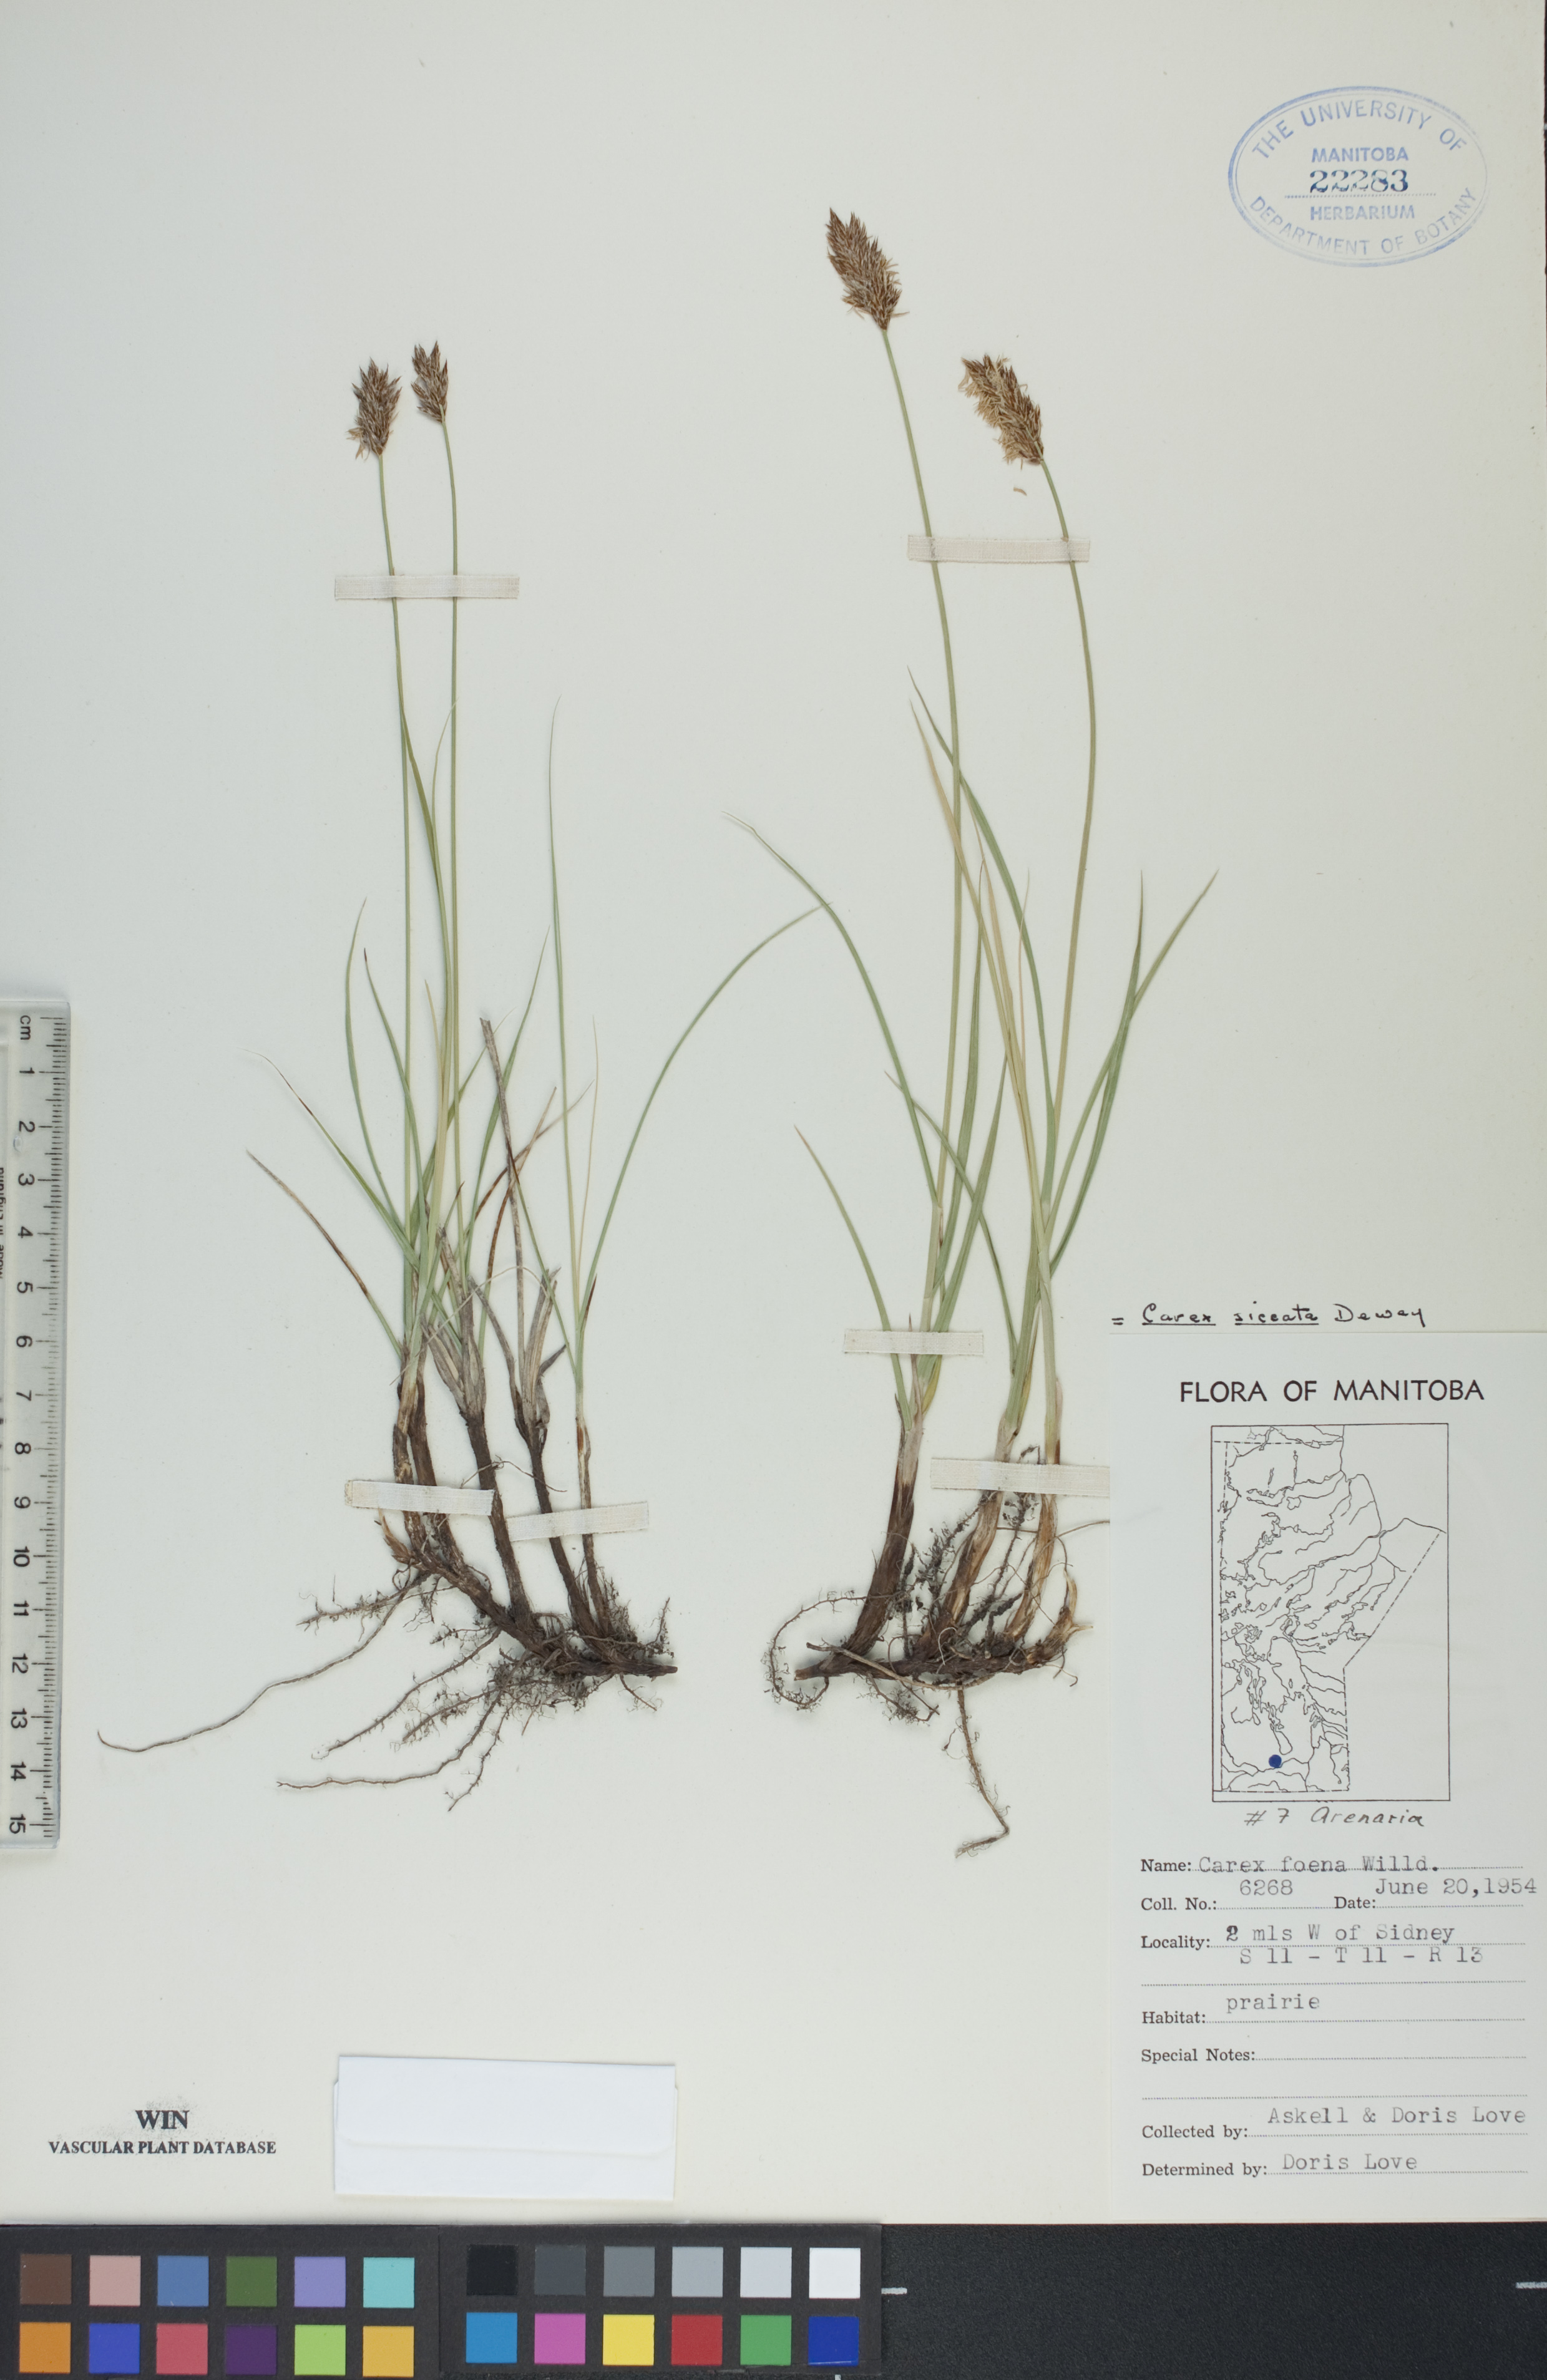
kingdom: Plantae
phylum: Tracheophyta
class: Liliopsida
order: Poales
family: Cyperaceae
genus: Carex
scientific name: Carex siccata
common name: Dry sedge
